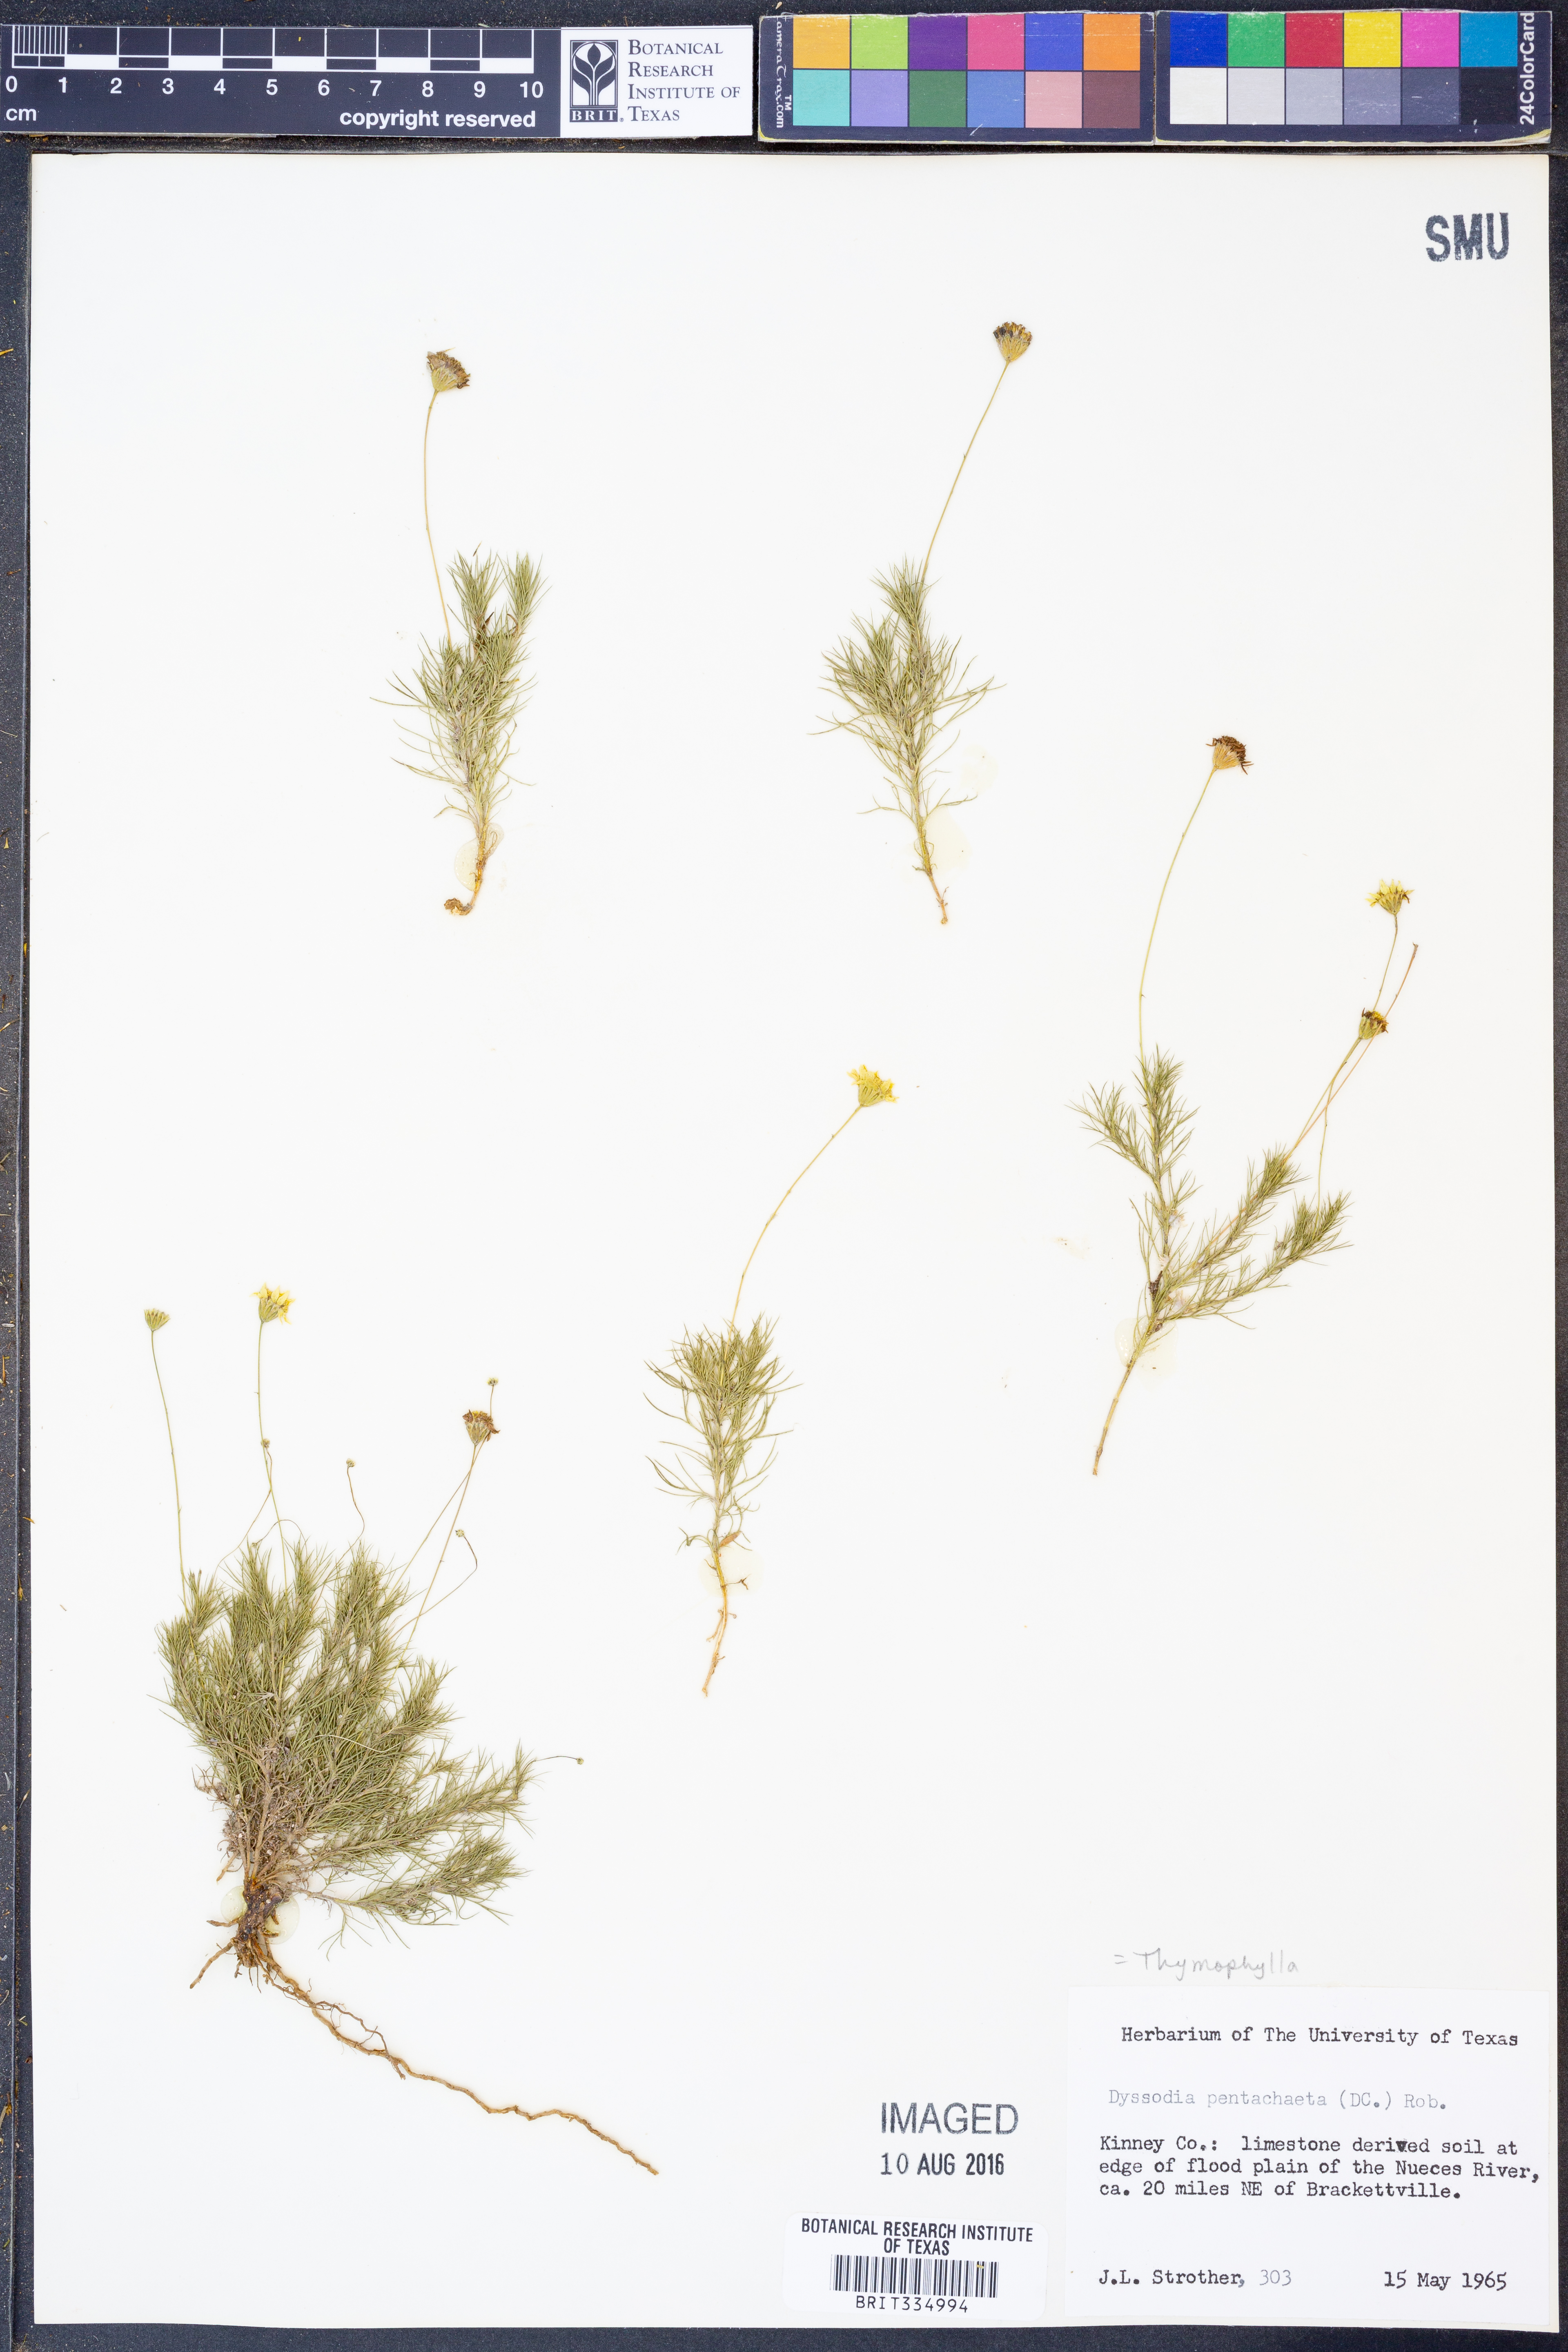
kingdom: Plantae
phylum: Tracheophyta
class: Magnoliopsida
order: Asterales
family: Asteraceae
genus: Thymophylla
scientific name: Thymophylla pentachaeta
